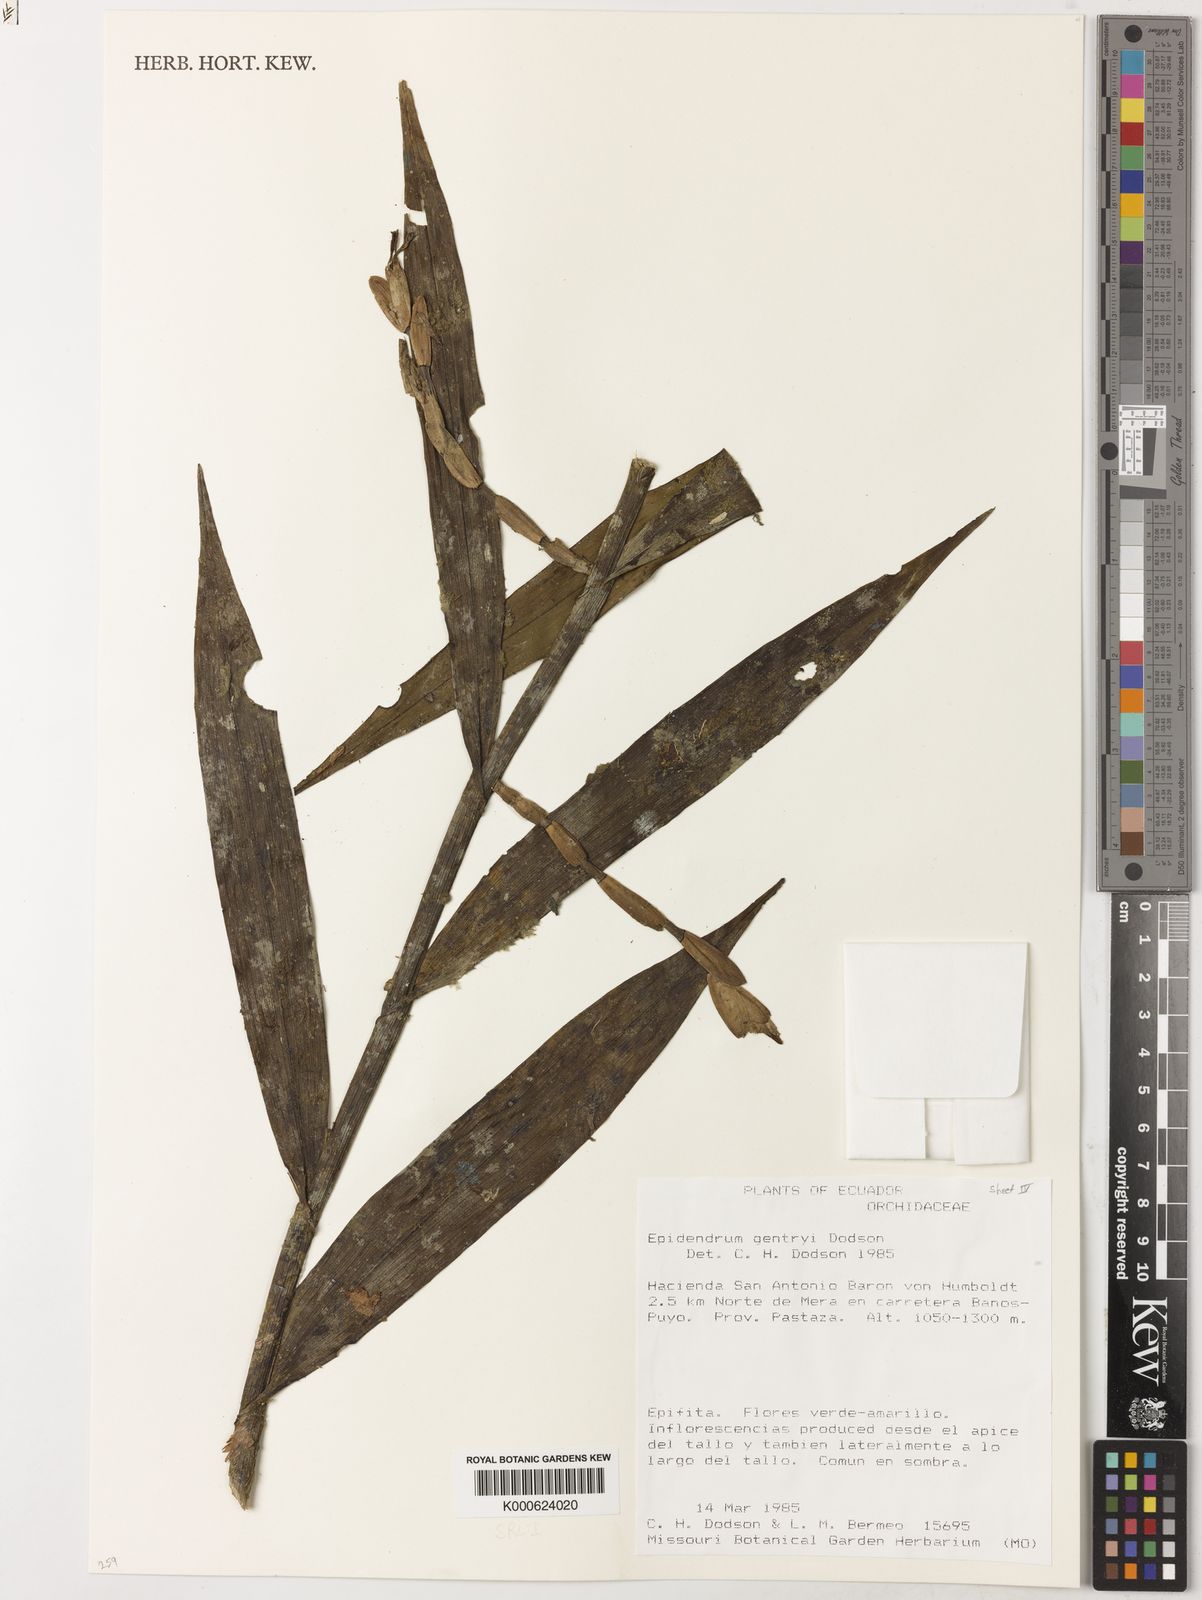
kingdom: Plantae
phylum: Tracheophyta
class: Liliopsida
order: Asparagales
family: Orchidaceae
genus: Epidendrum
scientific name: Epidendrum gentryi
